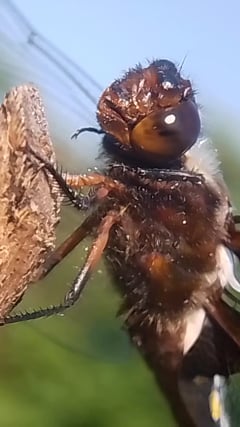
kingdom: Animalia
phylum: Arthropoda
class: Insecta
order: Odonata
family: Libellulidae
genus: Libellula
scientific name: Libellula depressa
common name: Broad-bodied chaser
